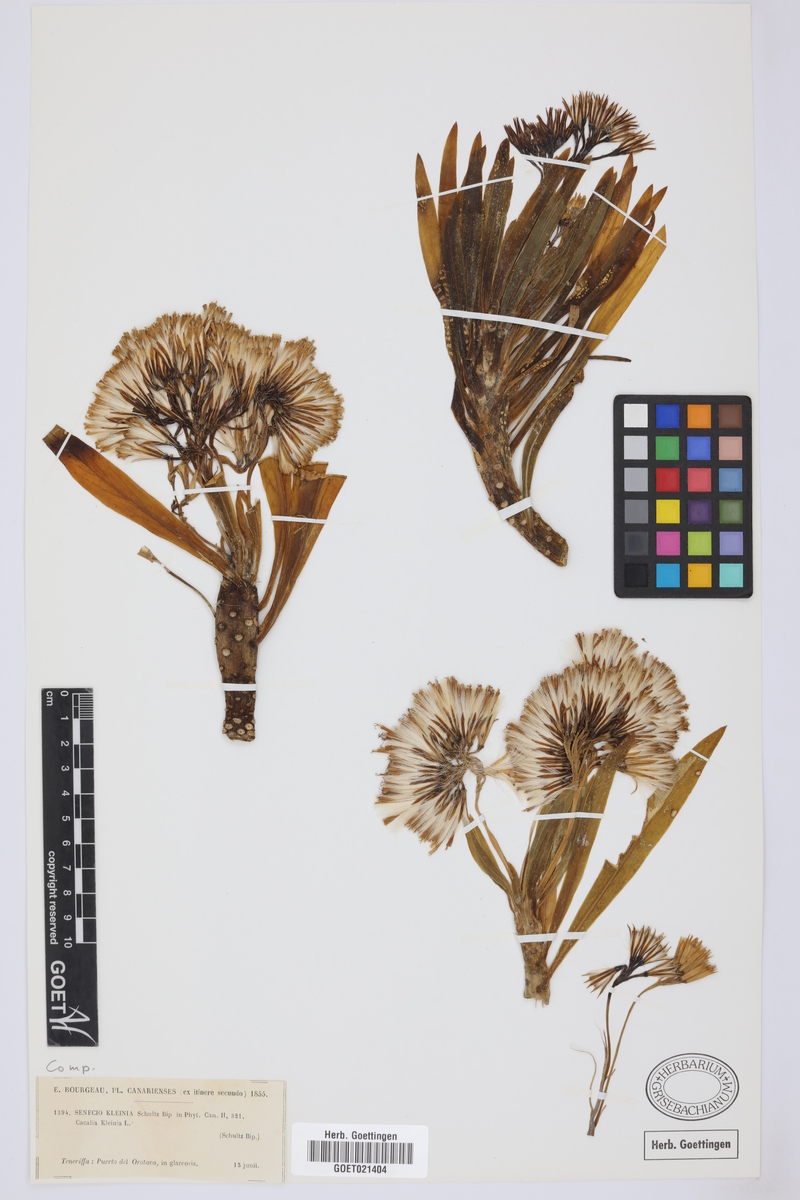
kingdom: Plantae
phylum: Tracheophyta
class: Magnoliopsida
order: Asterales
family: Asteraceae
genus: Kleinia
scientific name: Kleinia neriifolia
